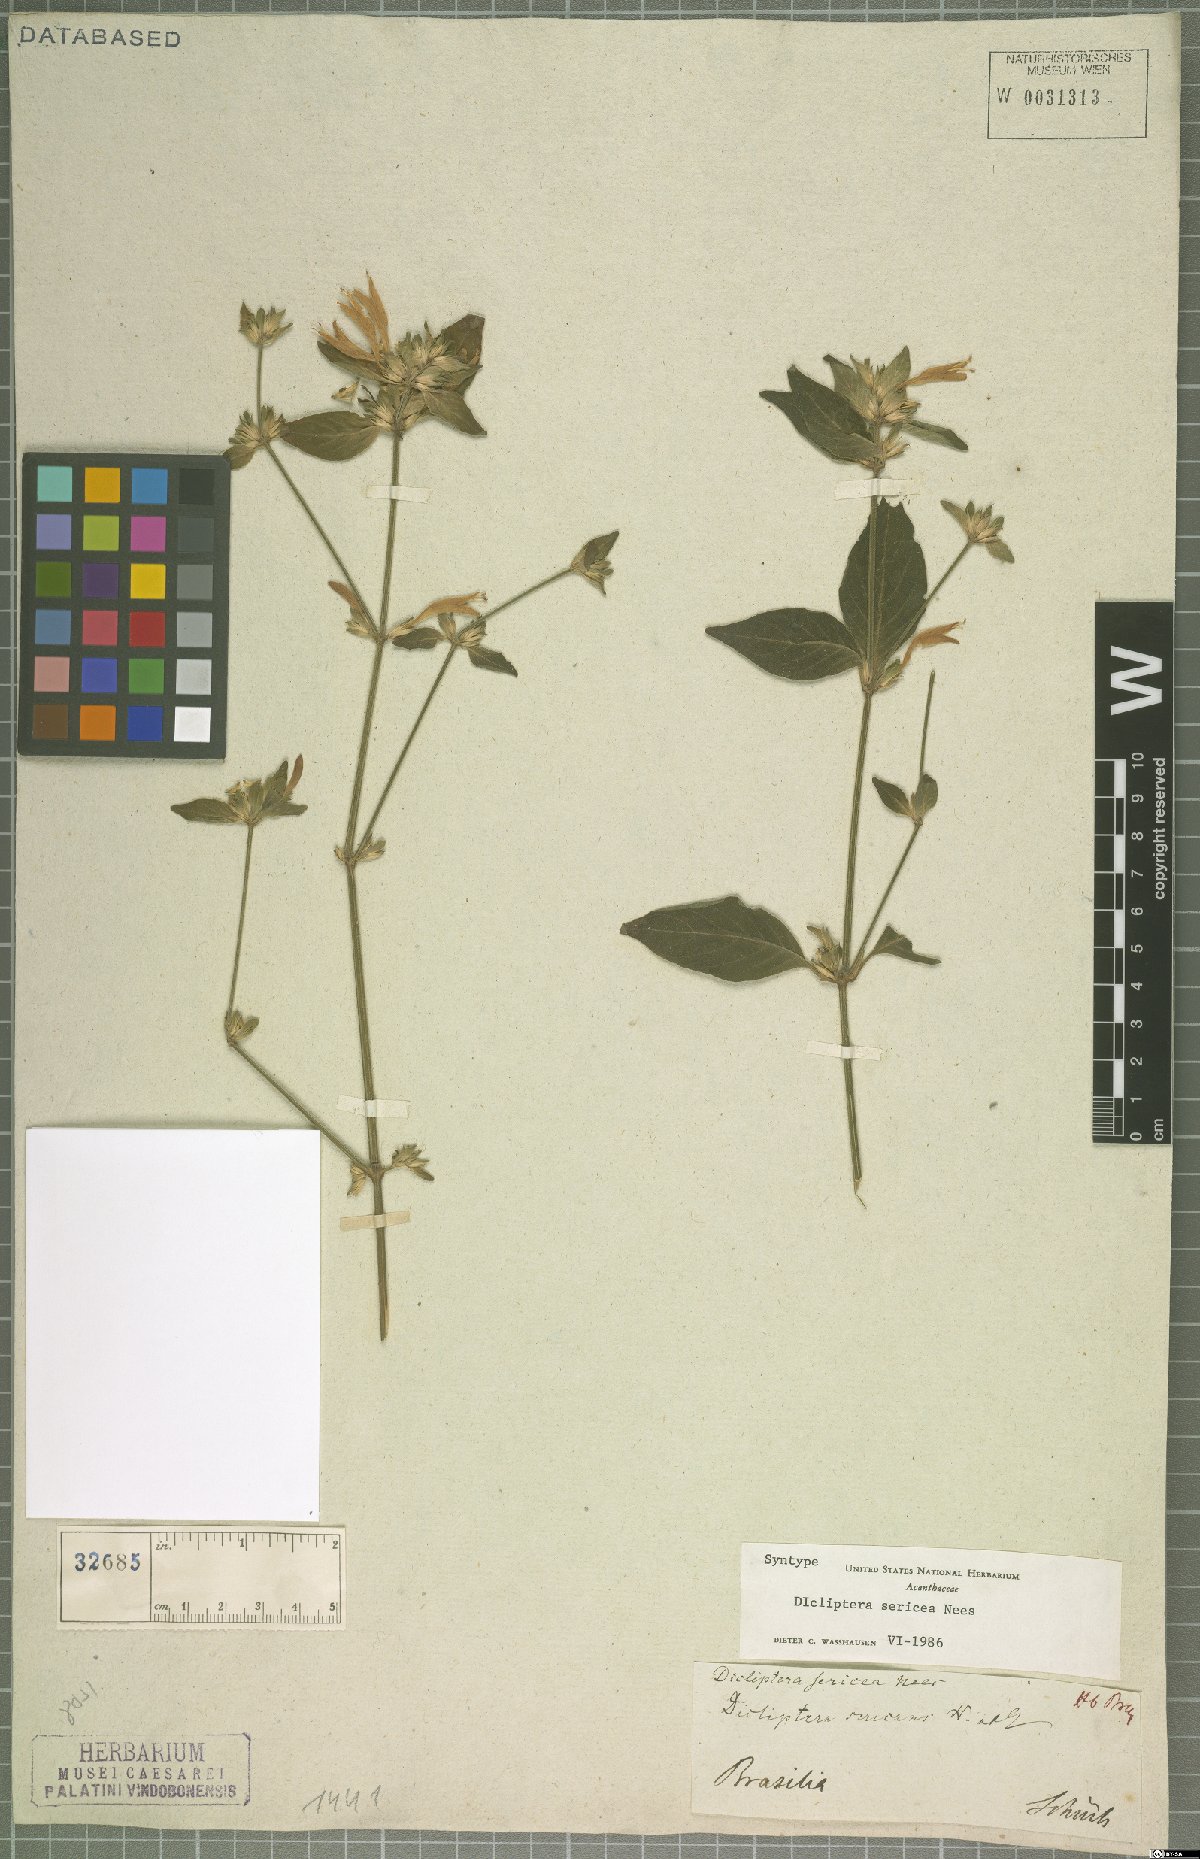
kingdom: Plantae
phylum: Tracheophyta
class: Magnoliopsida
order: Lamiales
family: Acanthaceae
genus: Dicliptera
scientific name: Dicliptera squarrosa
